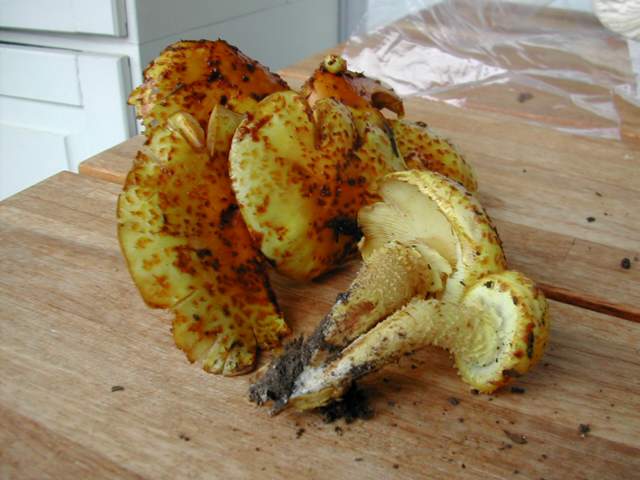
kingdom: Fungi
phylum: Basidiomycota
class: Agaricomycetes
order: Agaricales
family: Strophariaceae
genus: Pholiota
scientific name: Pholiota jahnii
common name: slimet skælhat
